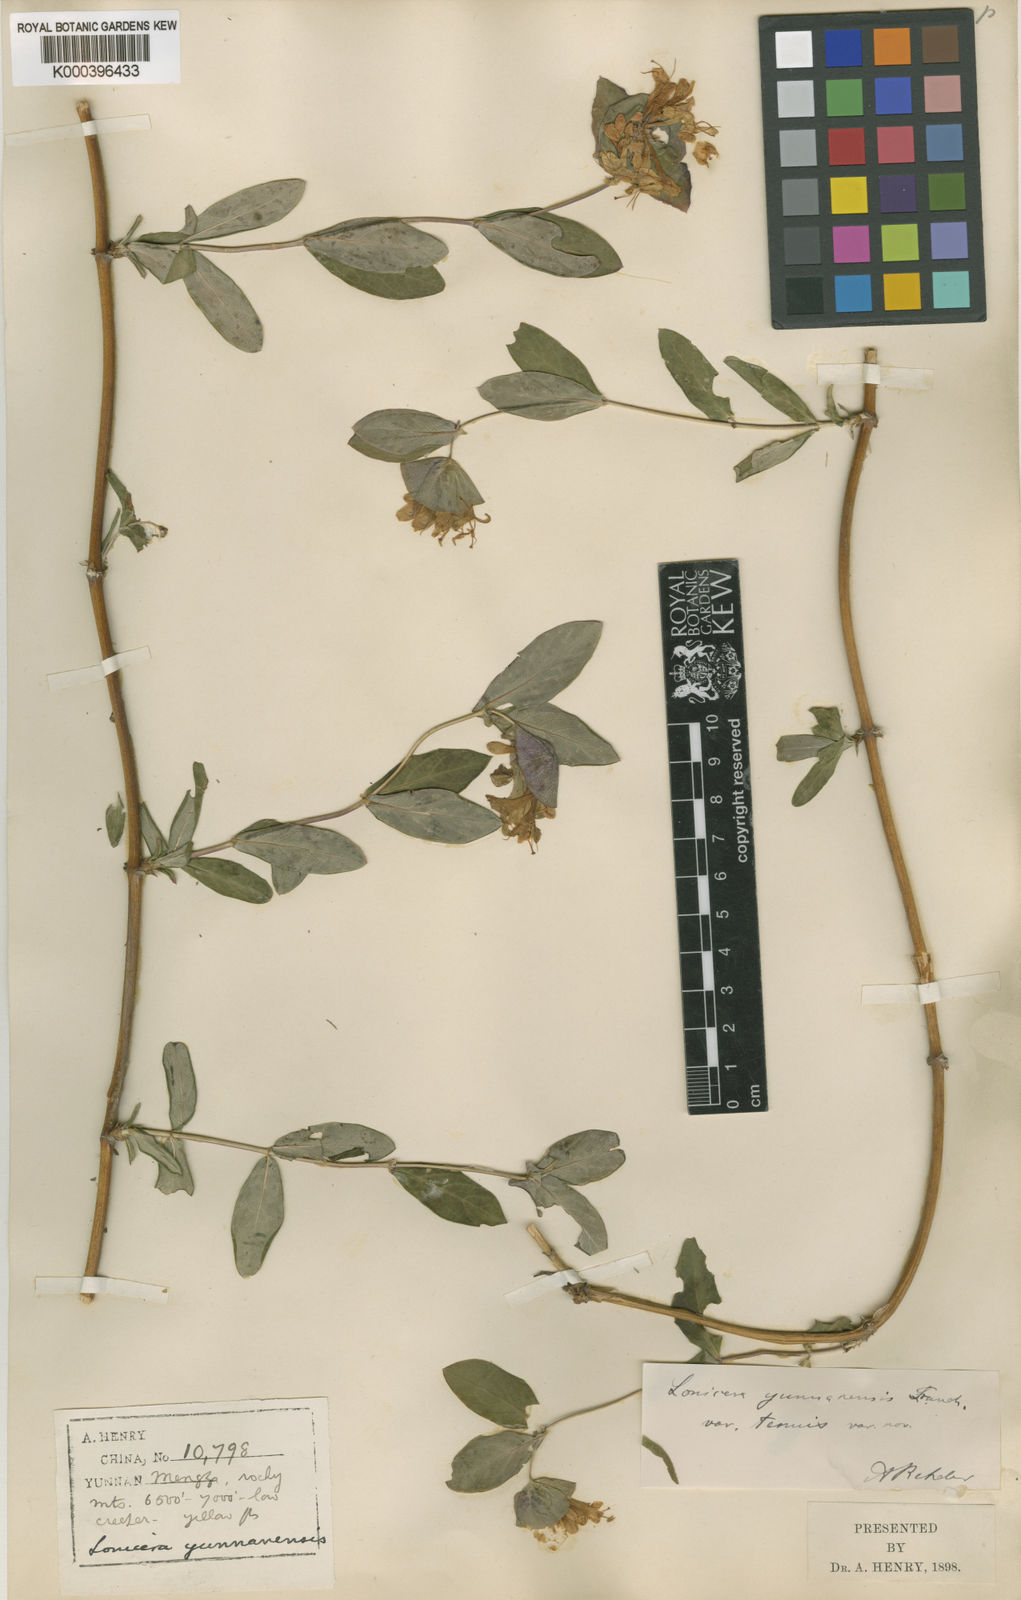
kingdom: Plantae
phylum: Tracheophyta
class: Magnoliopsida
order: Dipsacales
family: Caprifoliaceae
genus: Lonicera
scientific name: Lonicera yunnanensis
